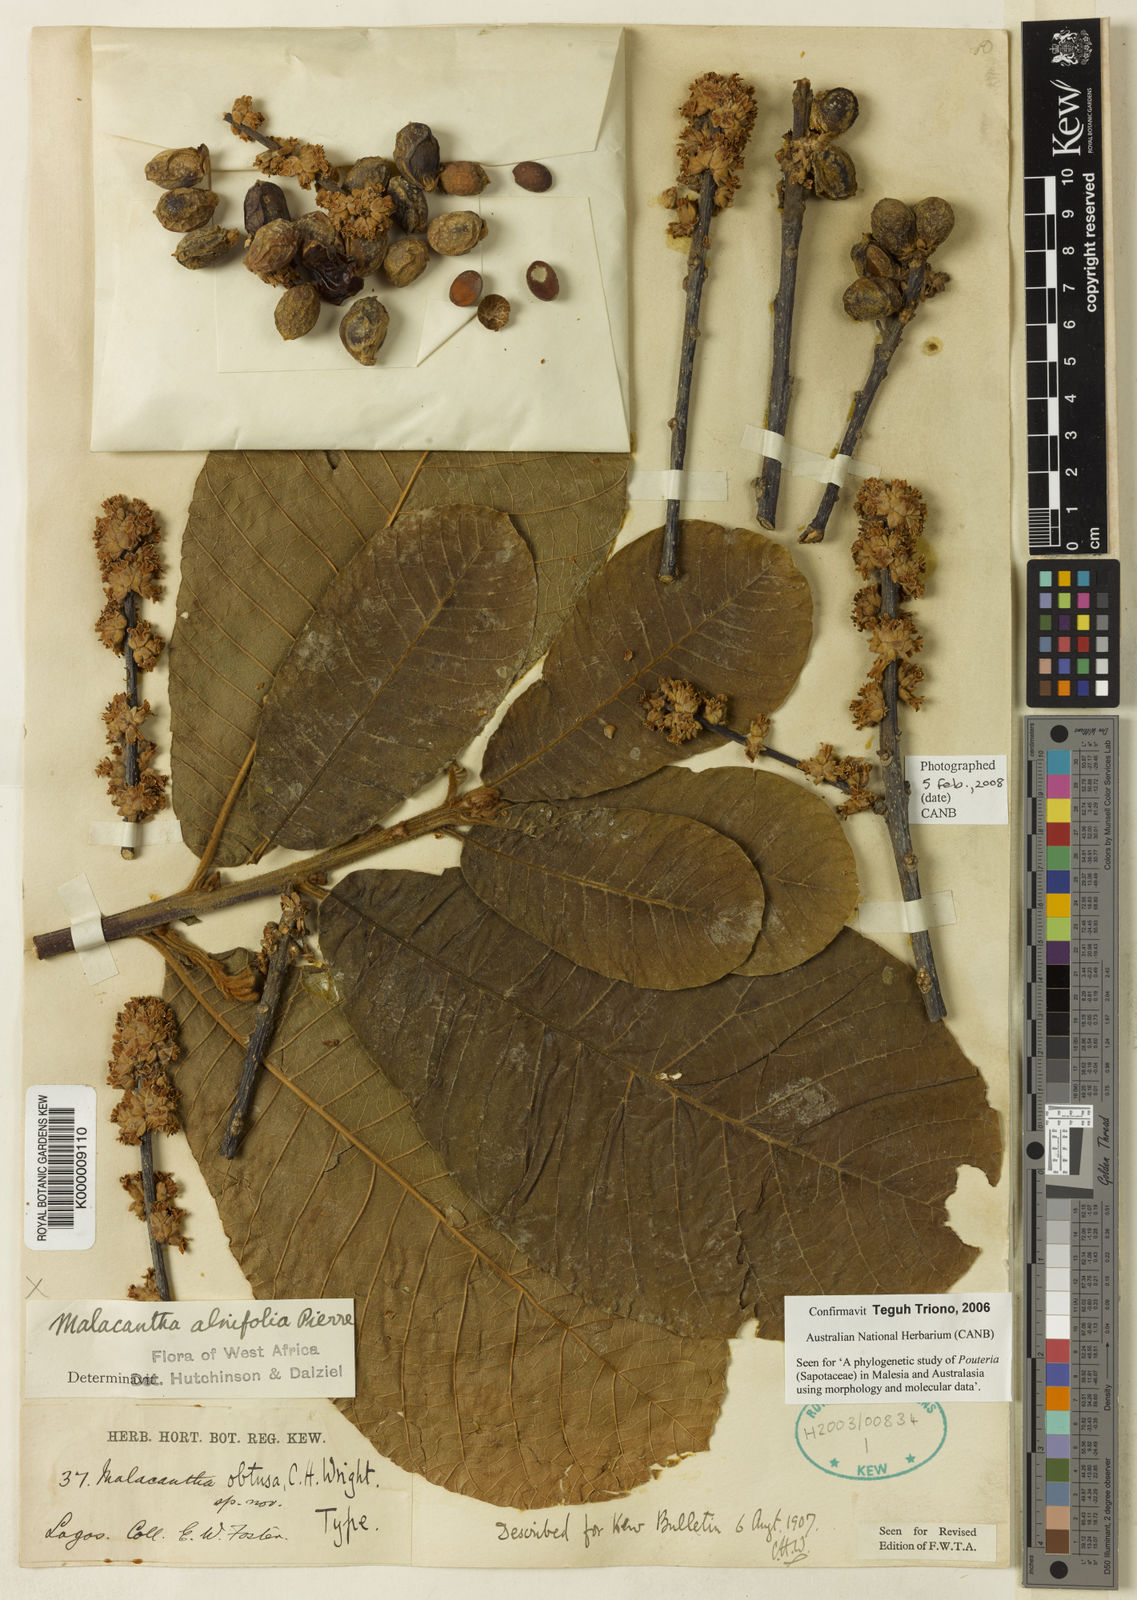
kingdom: Plantae
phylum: Tracheophyta
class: Magnoliopsida
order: Ericales
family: Sapotaceae
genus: Malacantha
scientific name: Malacantha alnifolia
